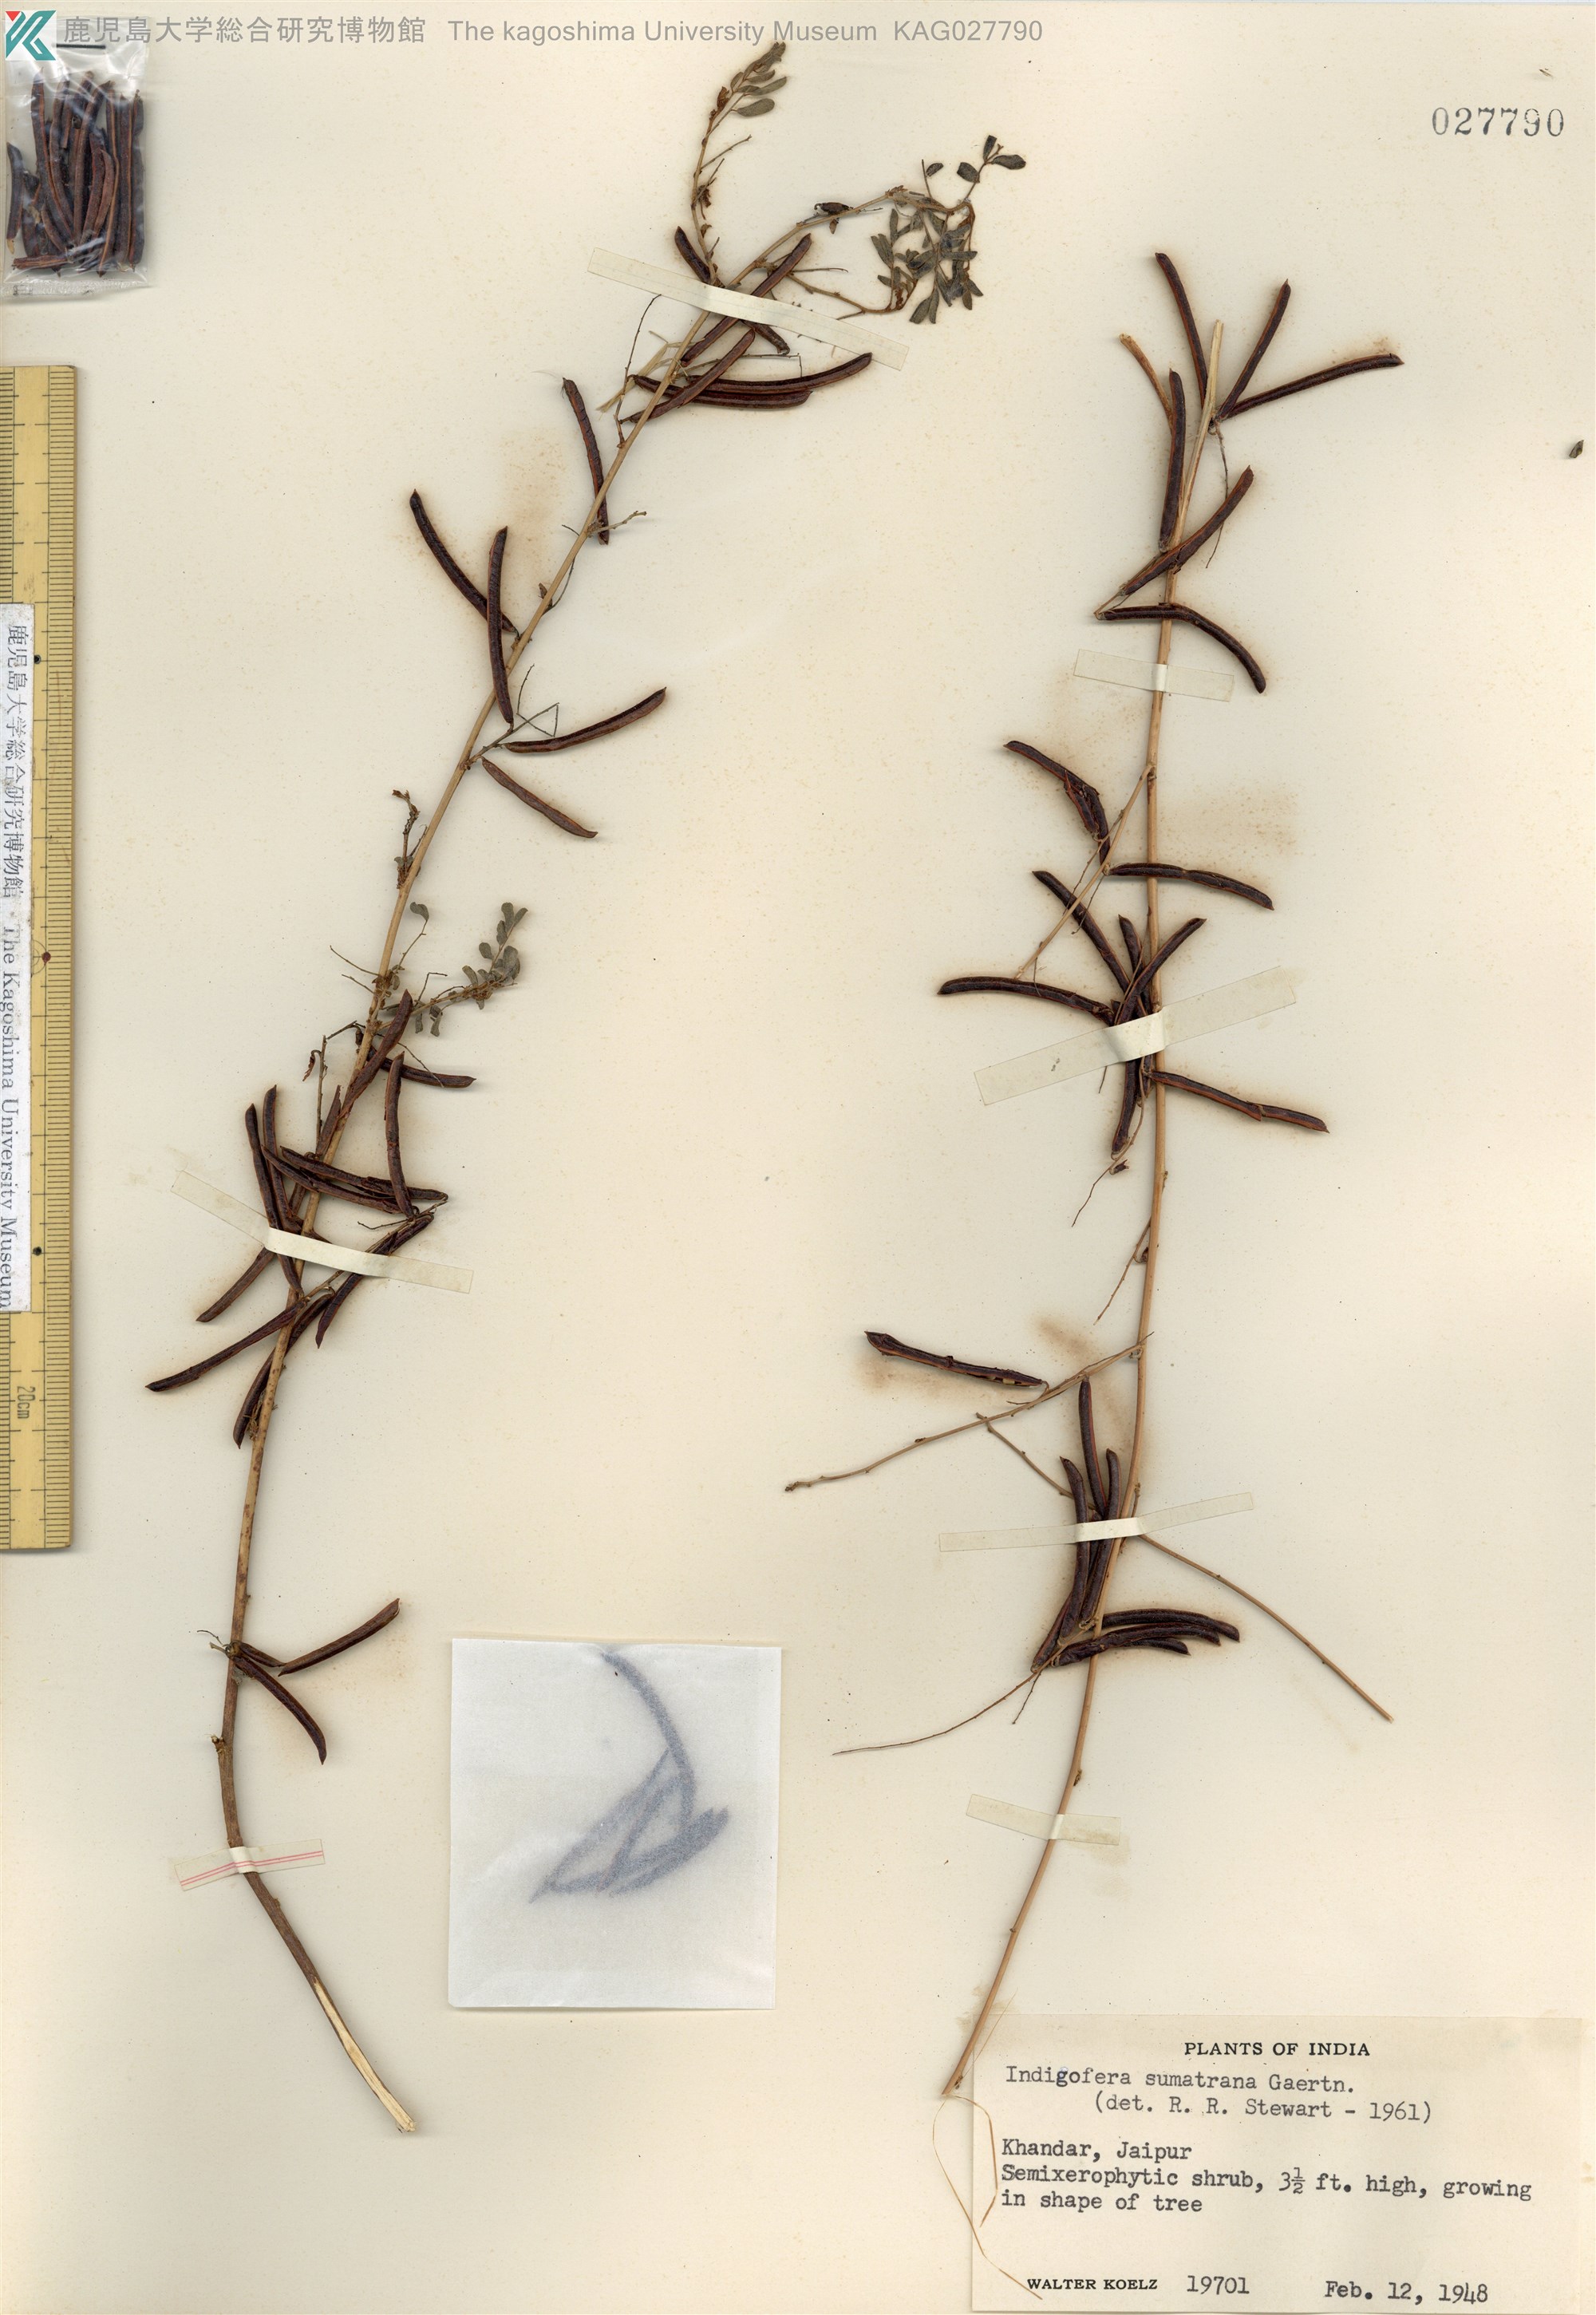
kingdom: Plantae
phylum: Tracheophyta
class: Magnoliopsida
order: Fabales
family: Fabaceae
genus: Indigofera
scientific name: Indigofera tinctoria
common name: True indigo
